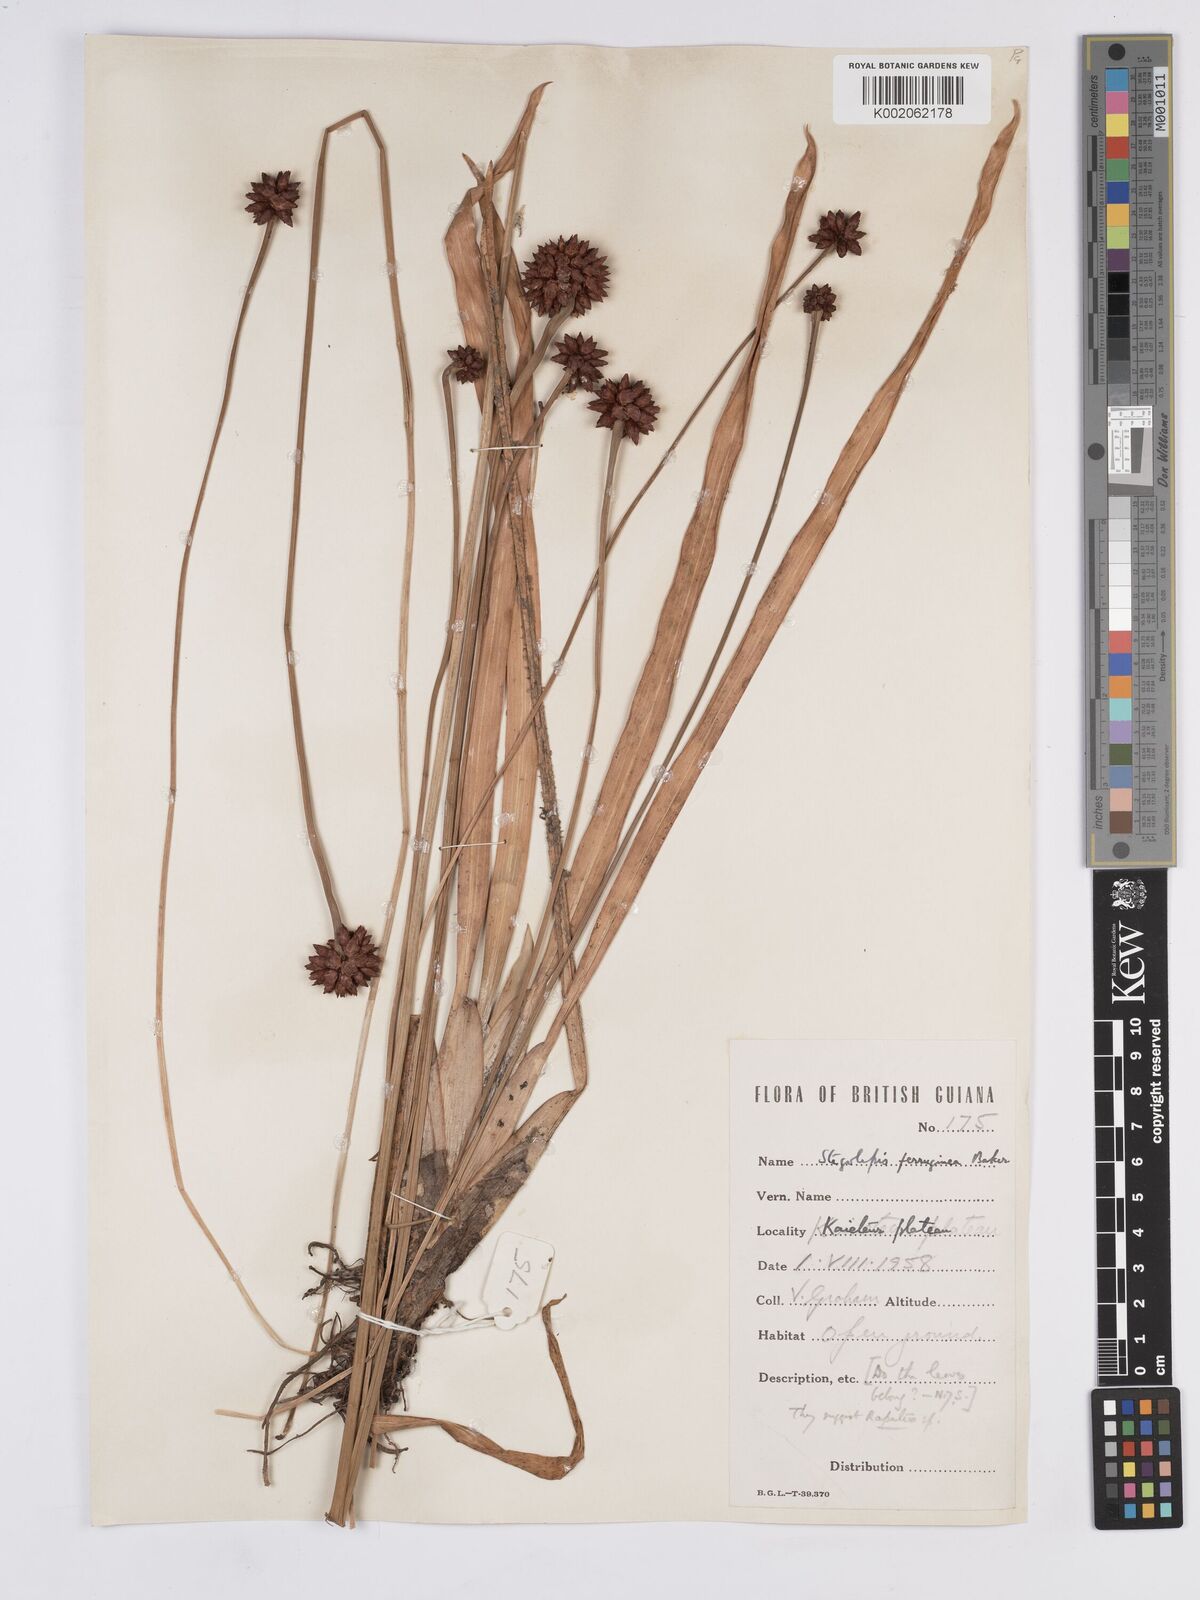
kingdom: Plantae
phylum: Tracheophyta
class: Liliopsida
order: Poales
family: Rapateaceae
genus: Stegolepis
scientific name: Stegolepis ferruginea
